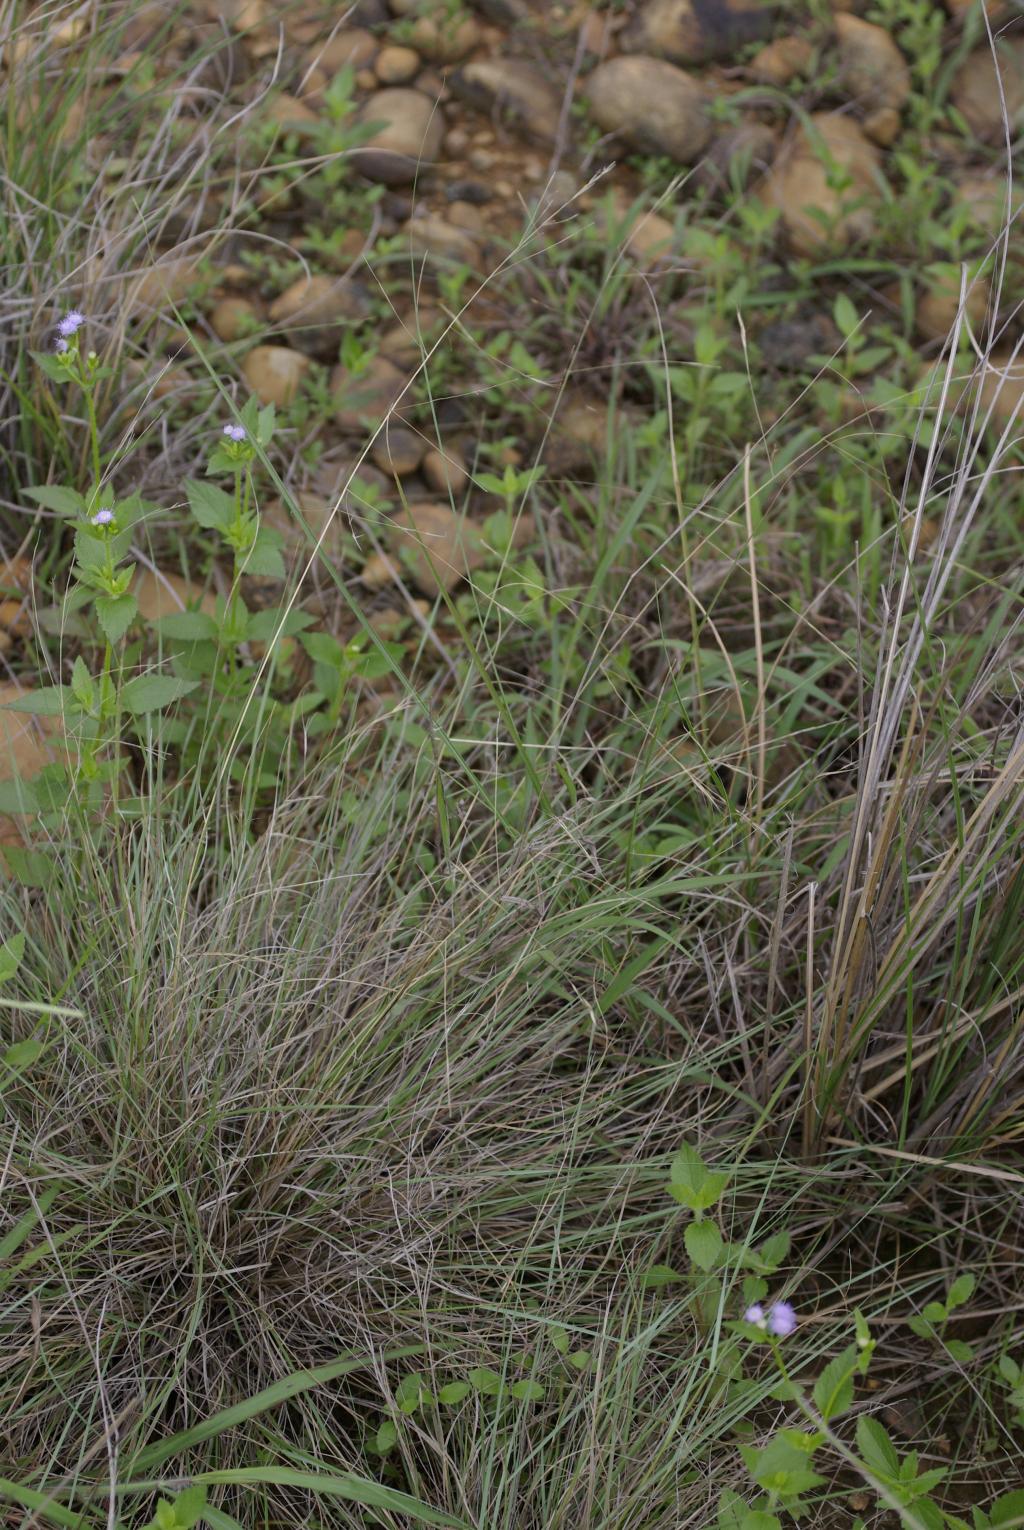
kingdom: Plantae
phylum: Tracheophyta
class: Liliopsida
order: Poales
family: Poaceae
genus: Aristida
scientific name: Aristida chinensis
